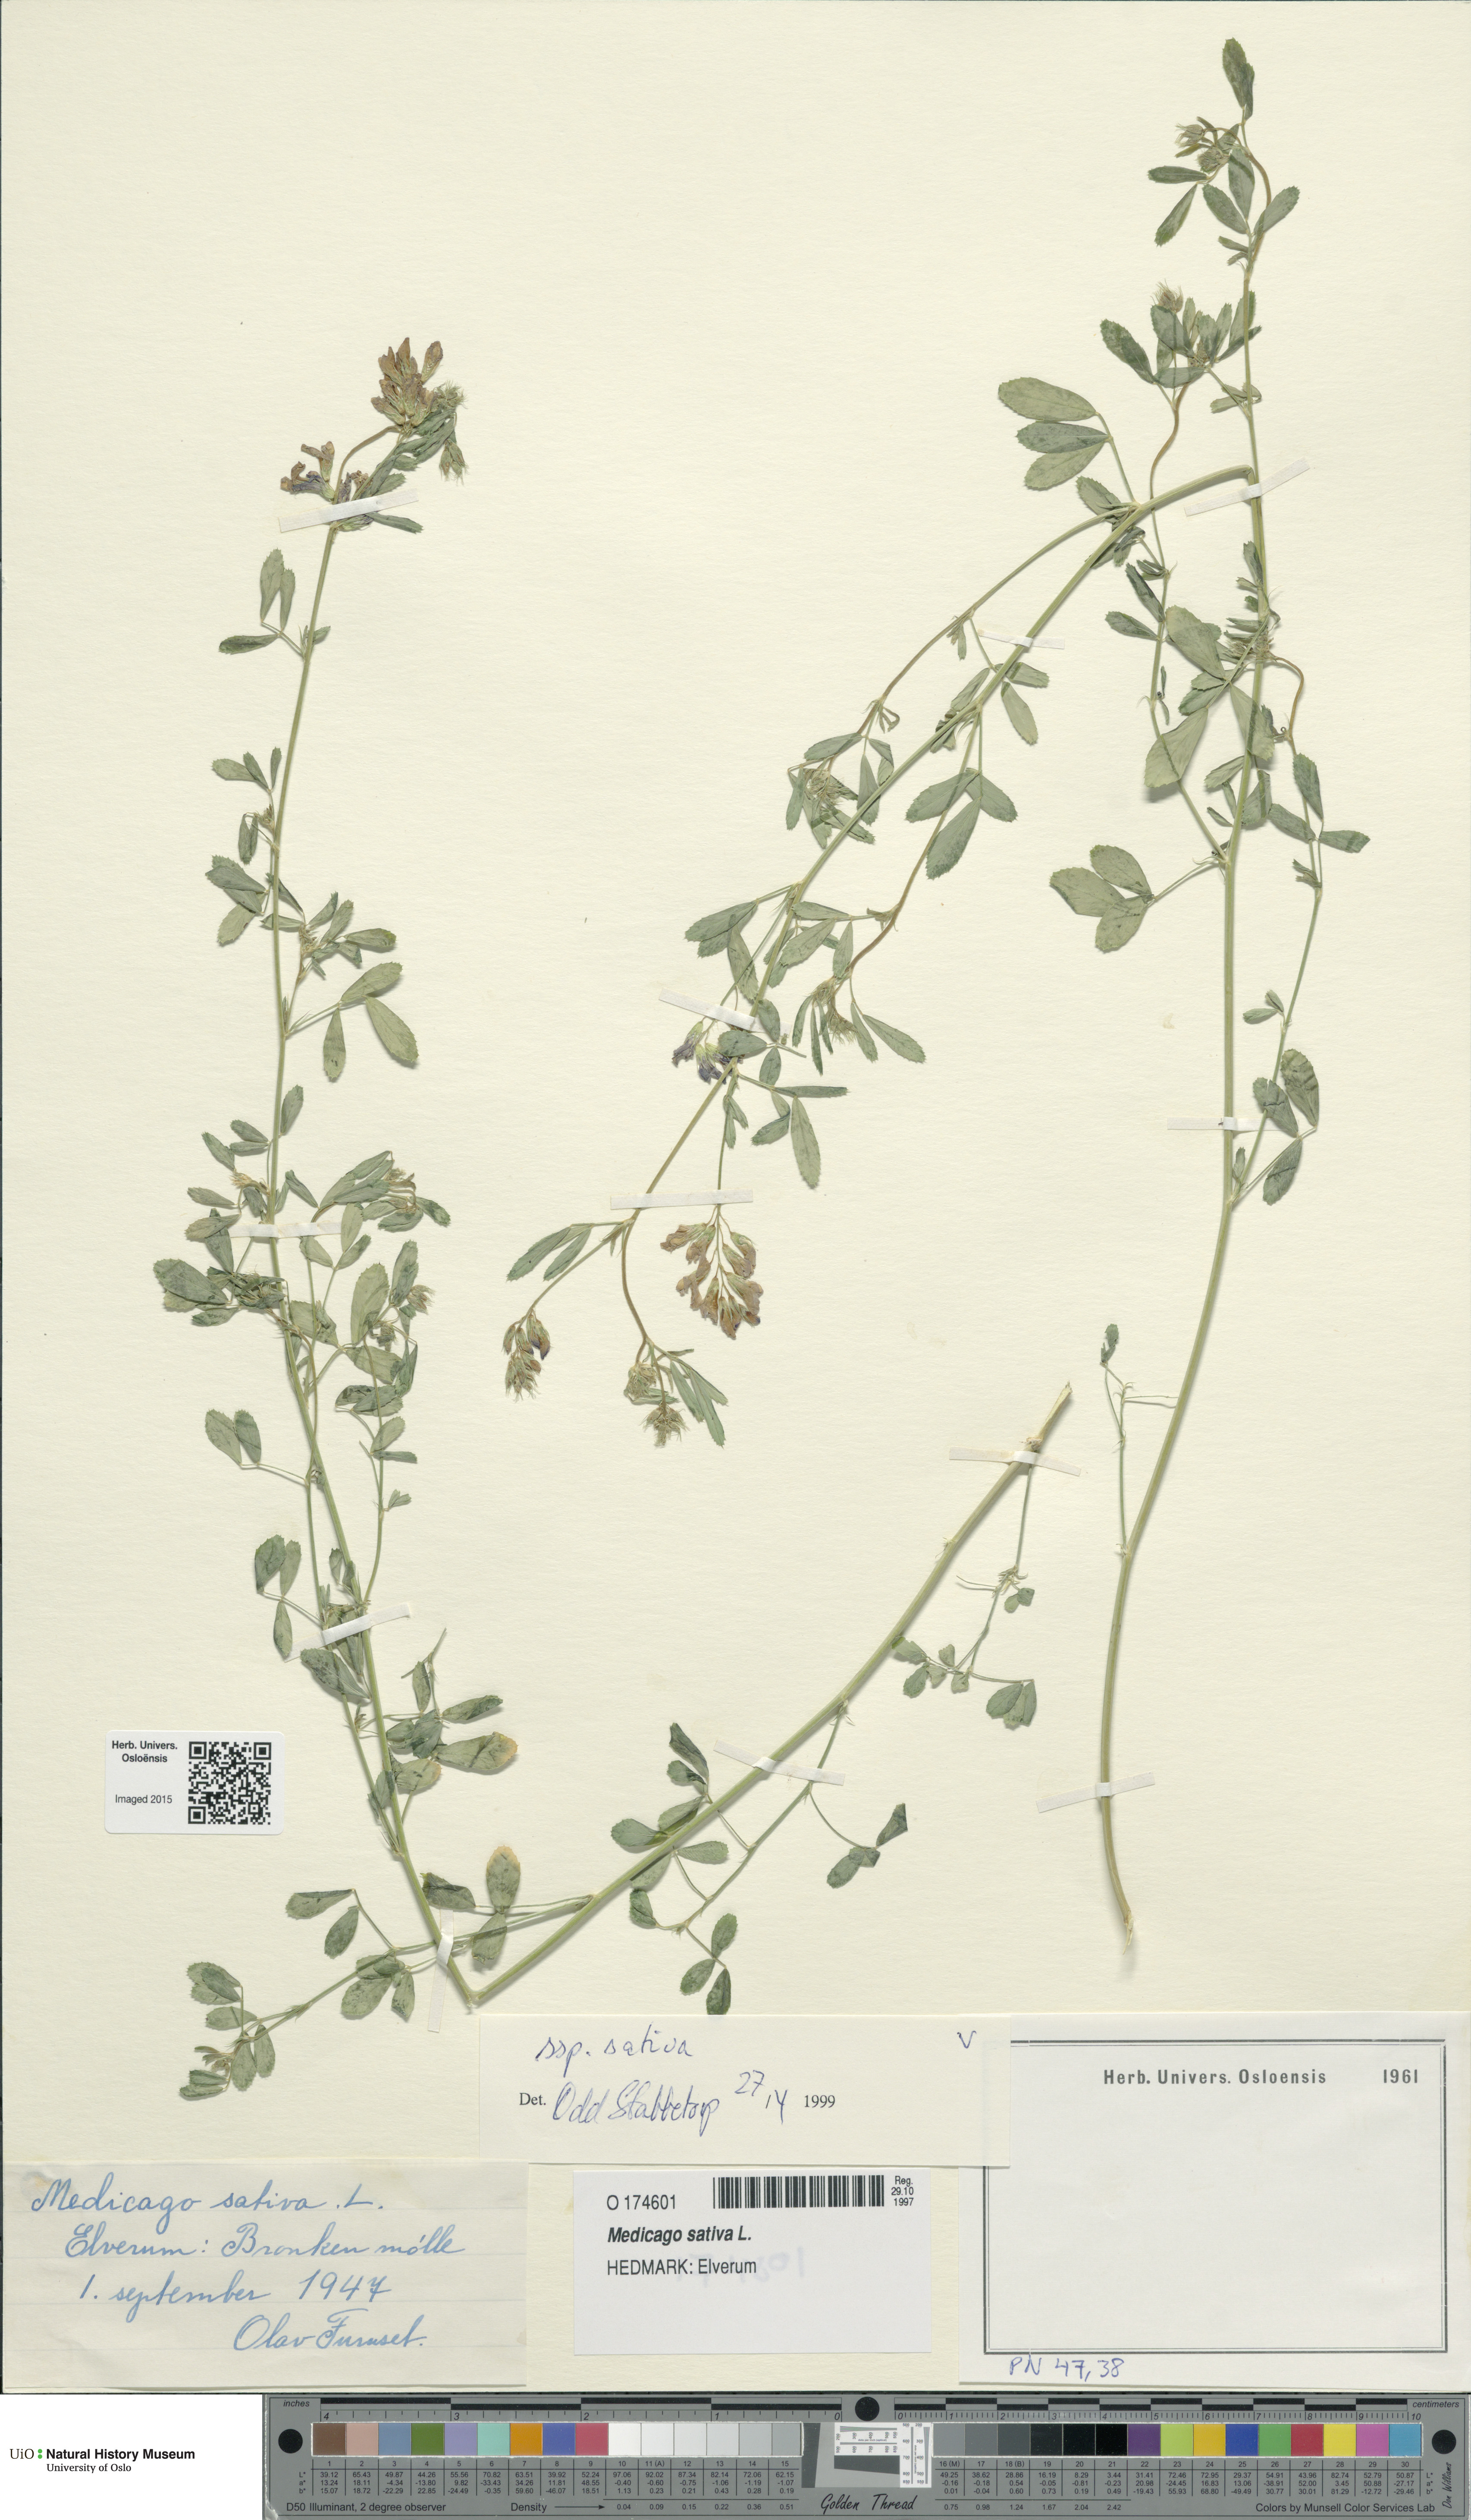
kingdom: Plantae
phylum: Tracheophyta
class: Magnoliopsida
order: Fabales
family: Fabaceae
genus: Medicago
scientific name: Medicago sativa
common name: Alfalfa
